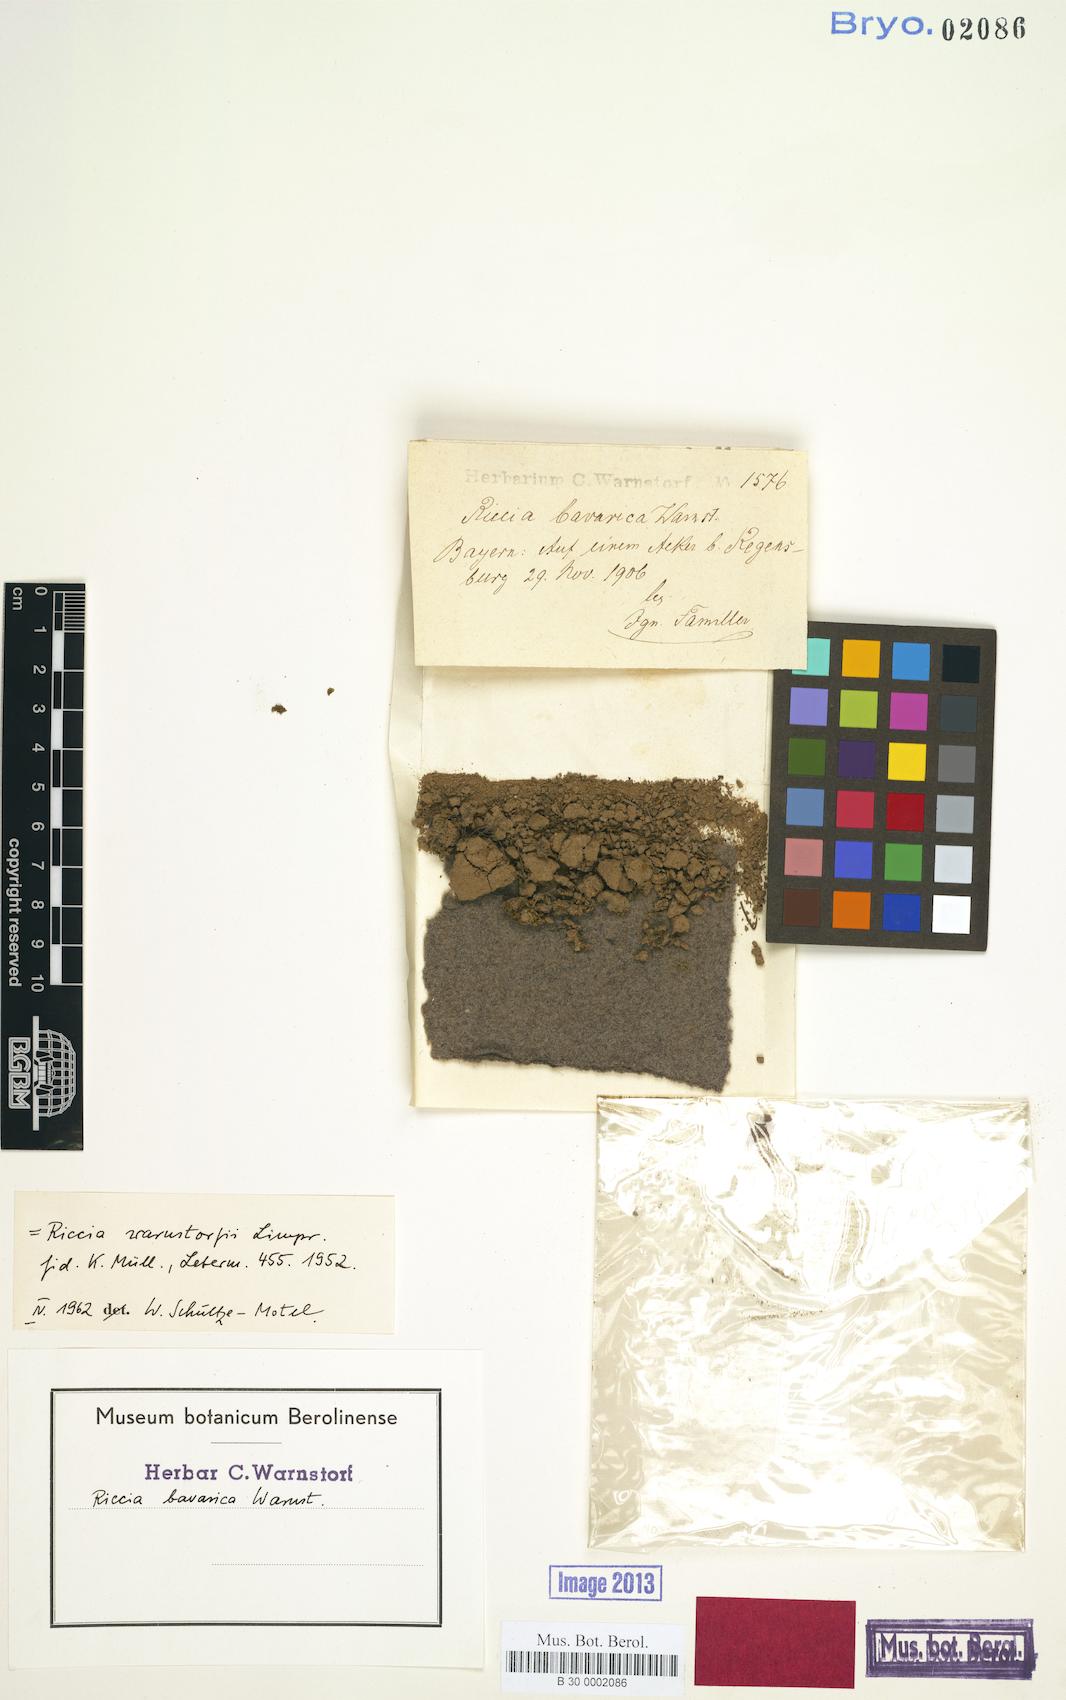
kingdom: Plantae
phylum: Marchantiophyta
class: Marchantiopsida
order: Marchantiales
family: Ricciaceae
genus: Riccia
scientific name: Riccia warnstorfii
